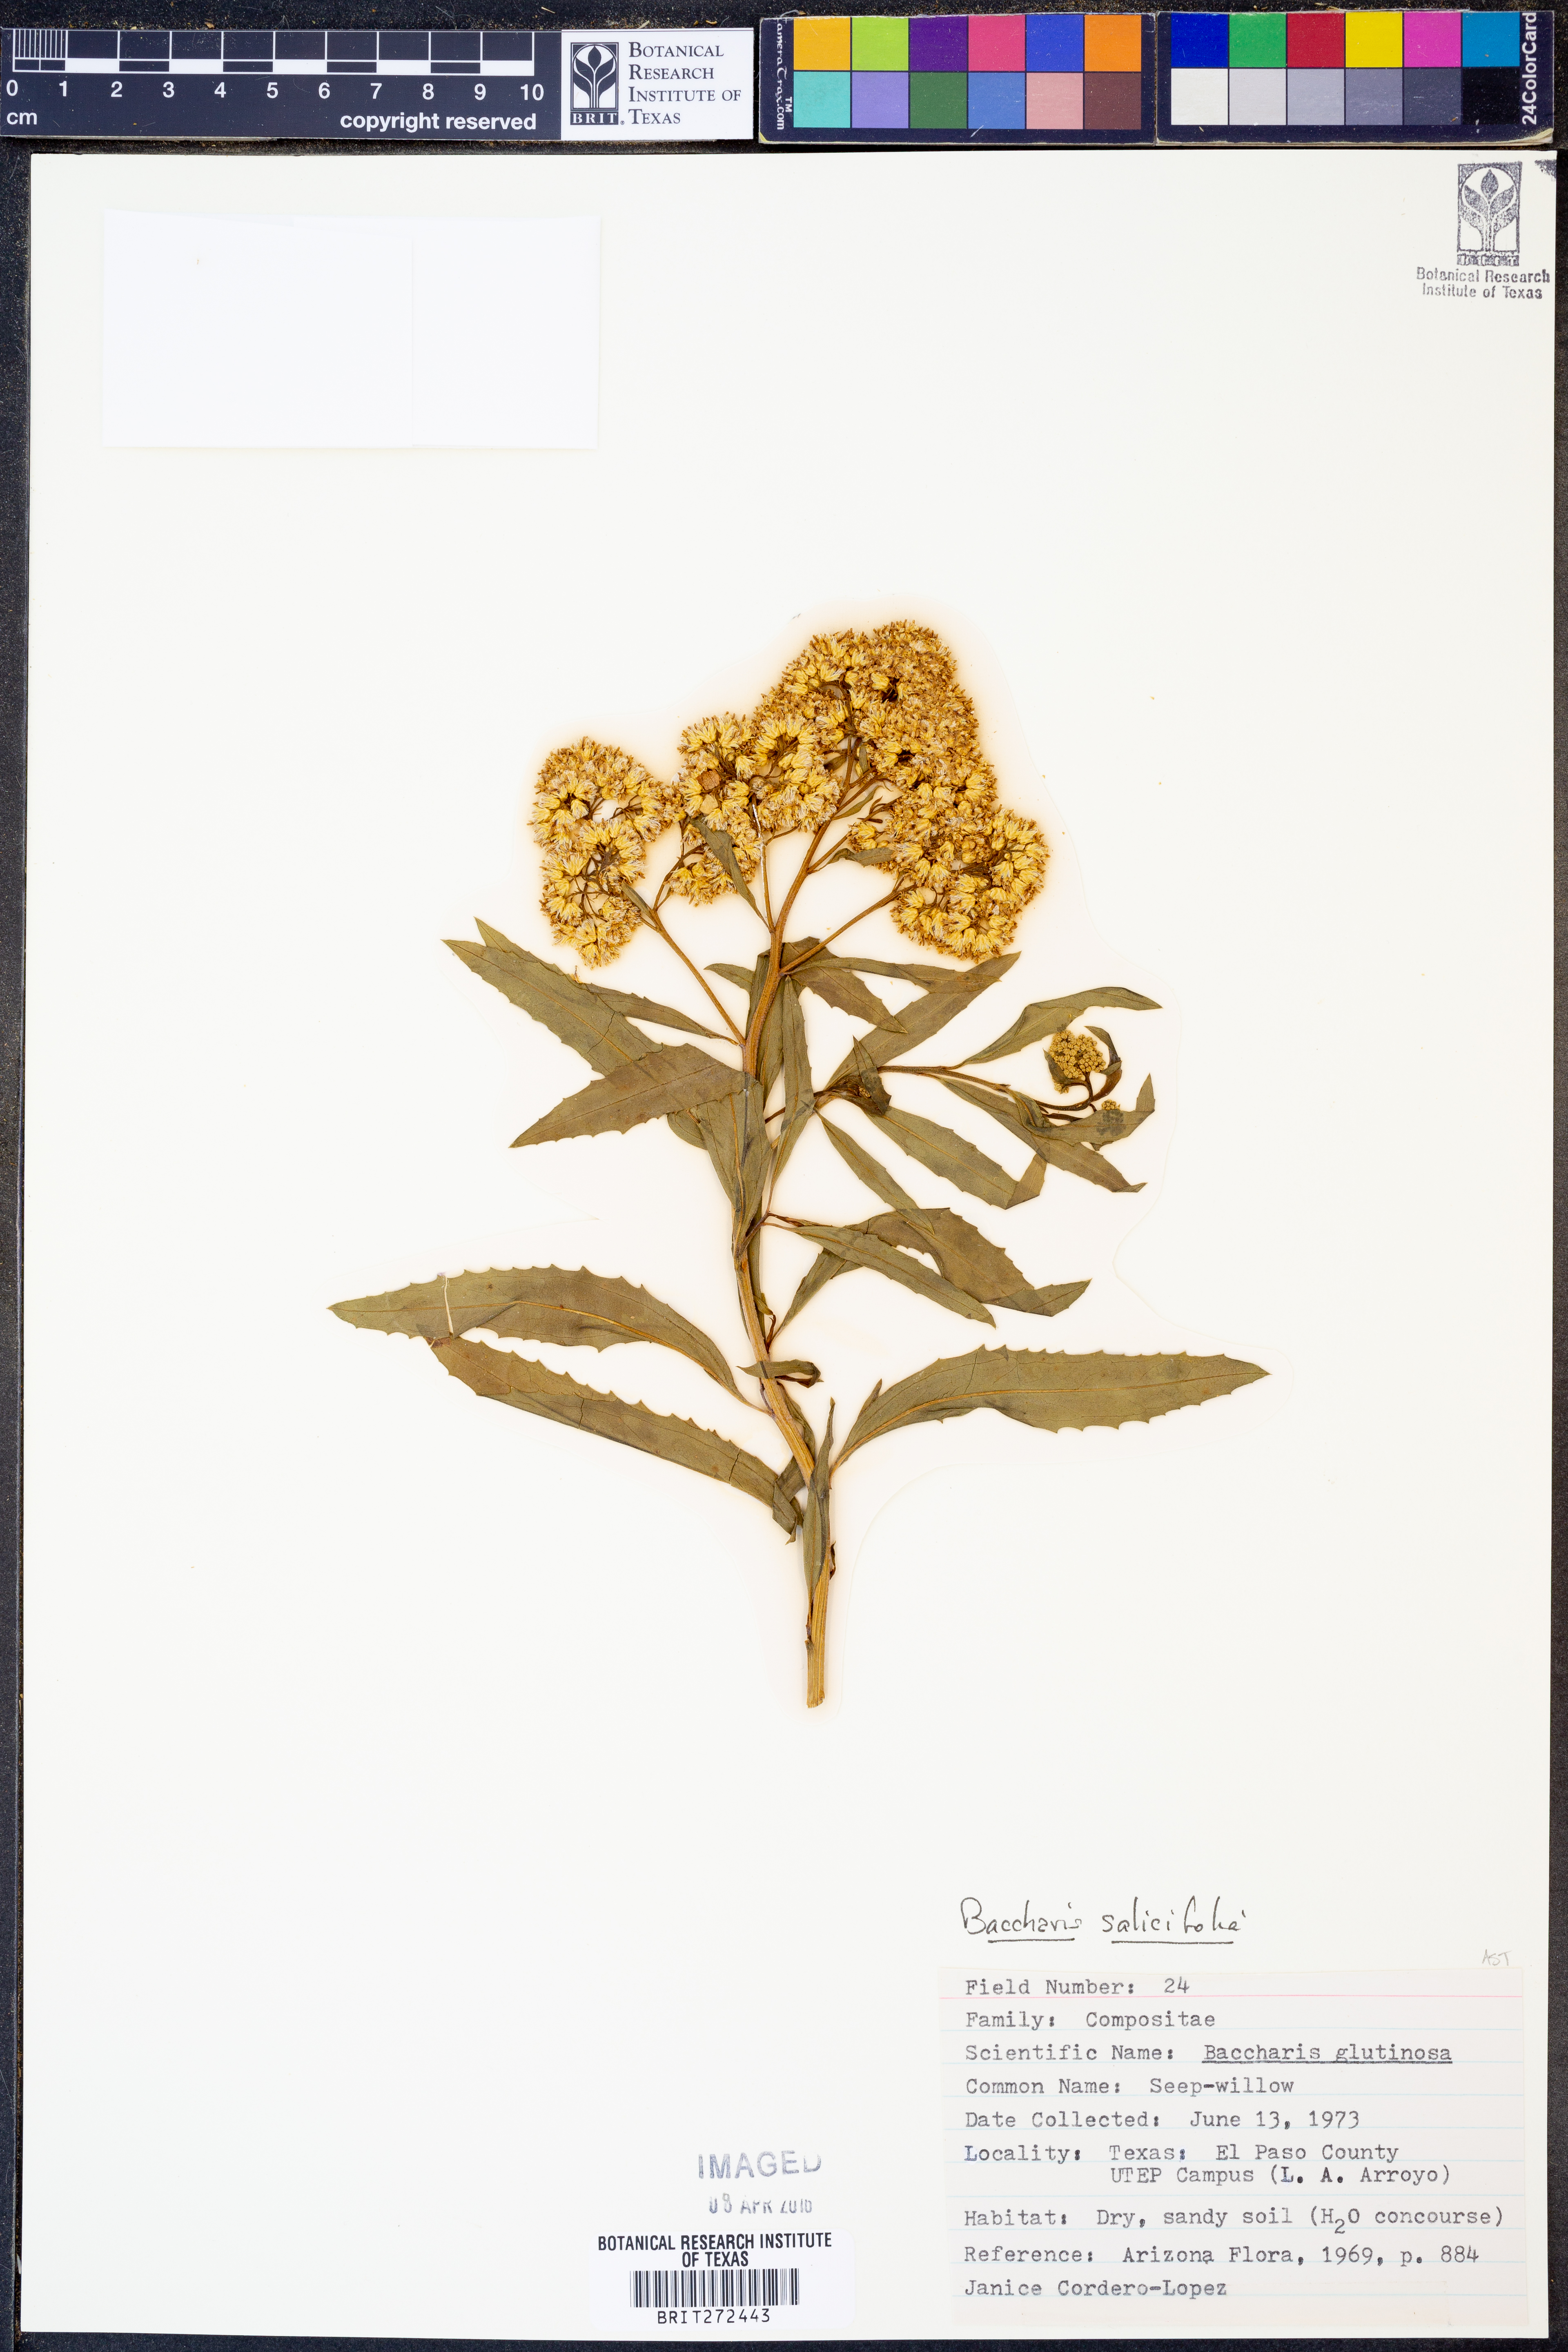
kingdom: Plantae
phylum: Tracheophyta
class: Magnoliopsida
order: Asterales
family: Asteraceae
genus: Baccharis
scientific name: Baccharis salicifolia
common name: Sticky baccharis
